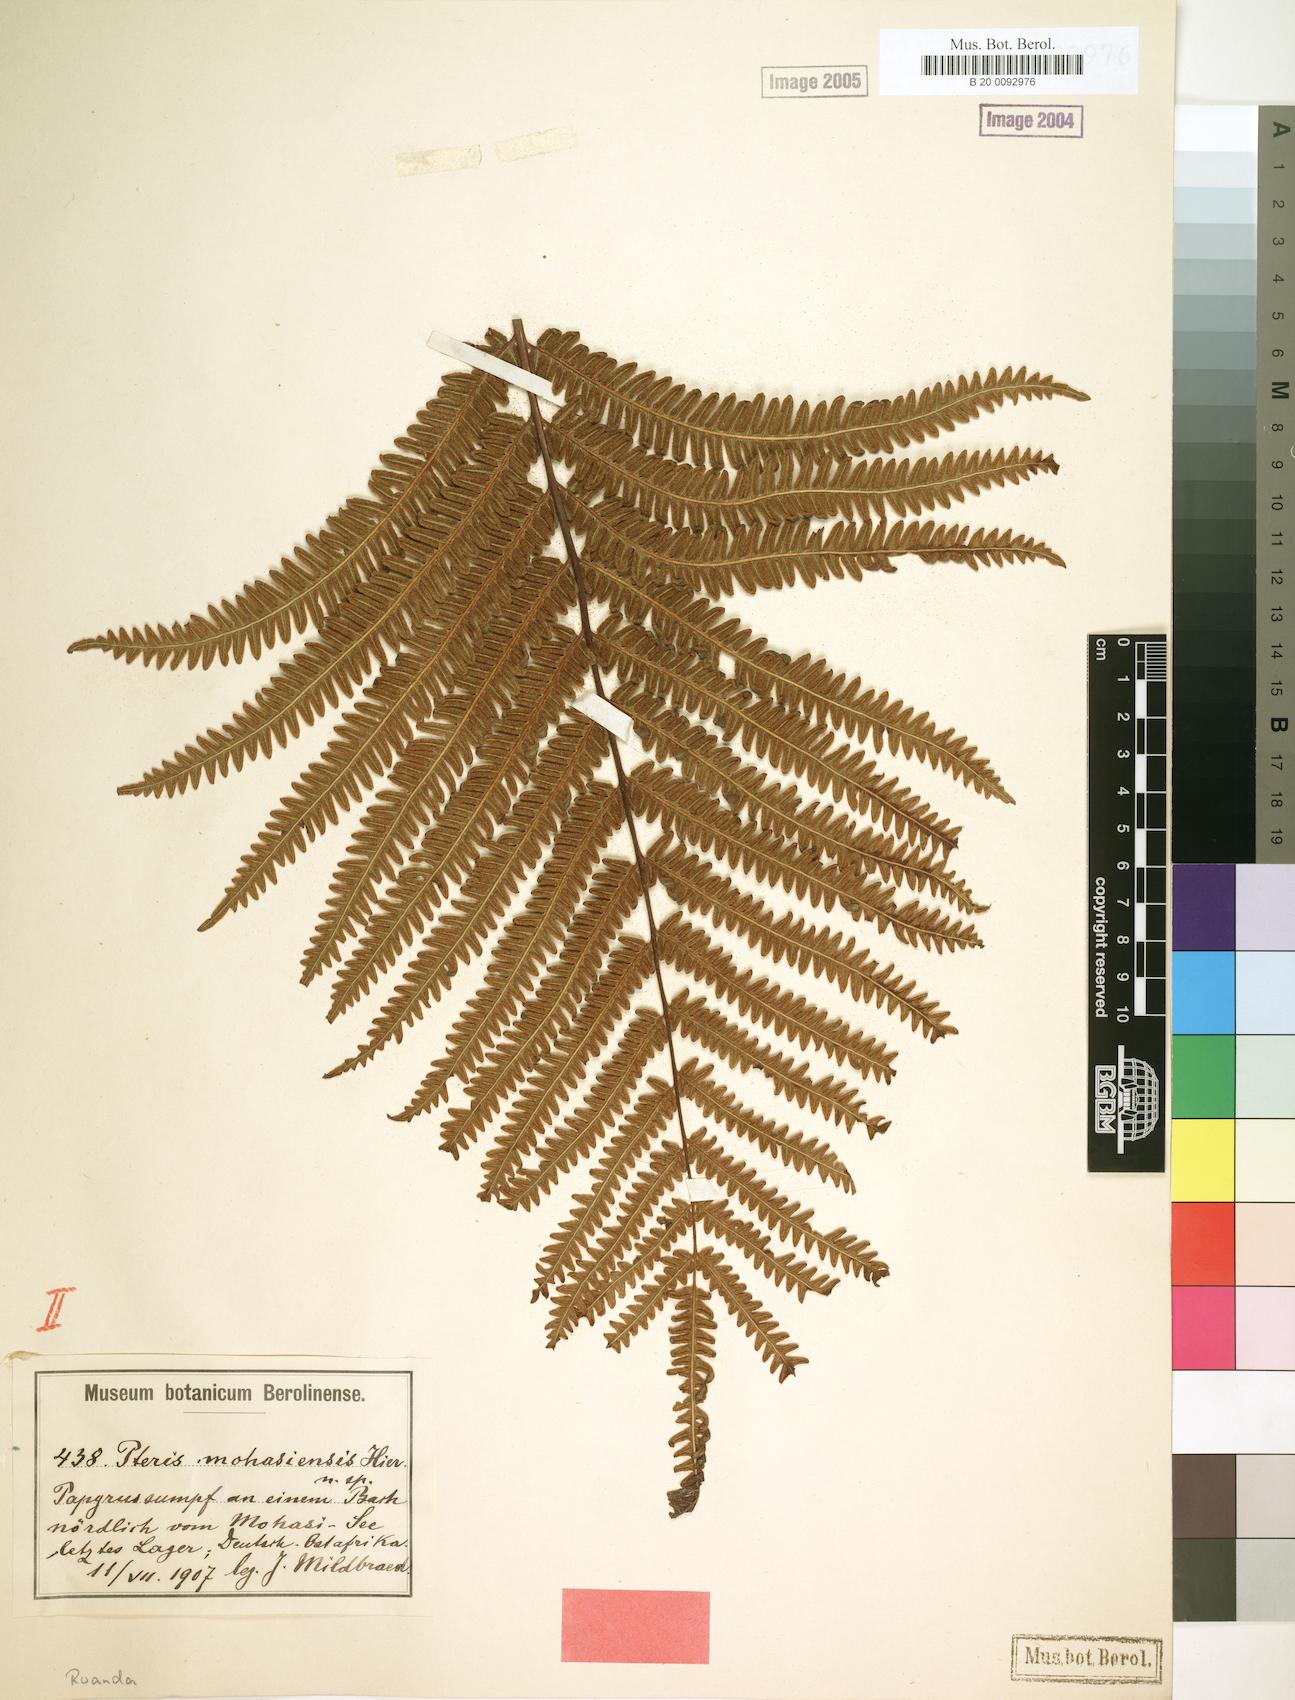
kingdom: Plantae
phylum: Tracheophyta
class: Polypodiopsida
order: Polypodiales
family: Pteridaceae
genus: Pteris
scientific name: Pteris friesii
